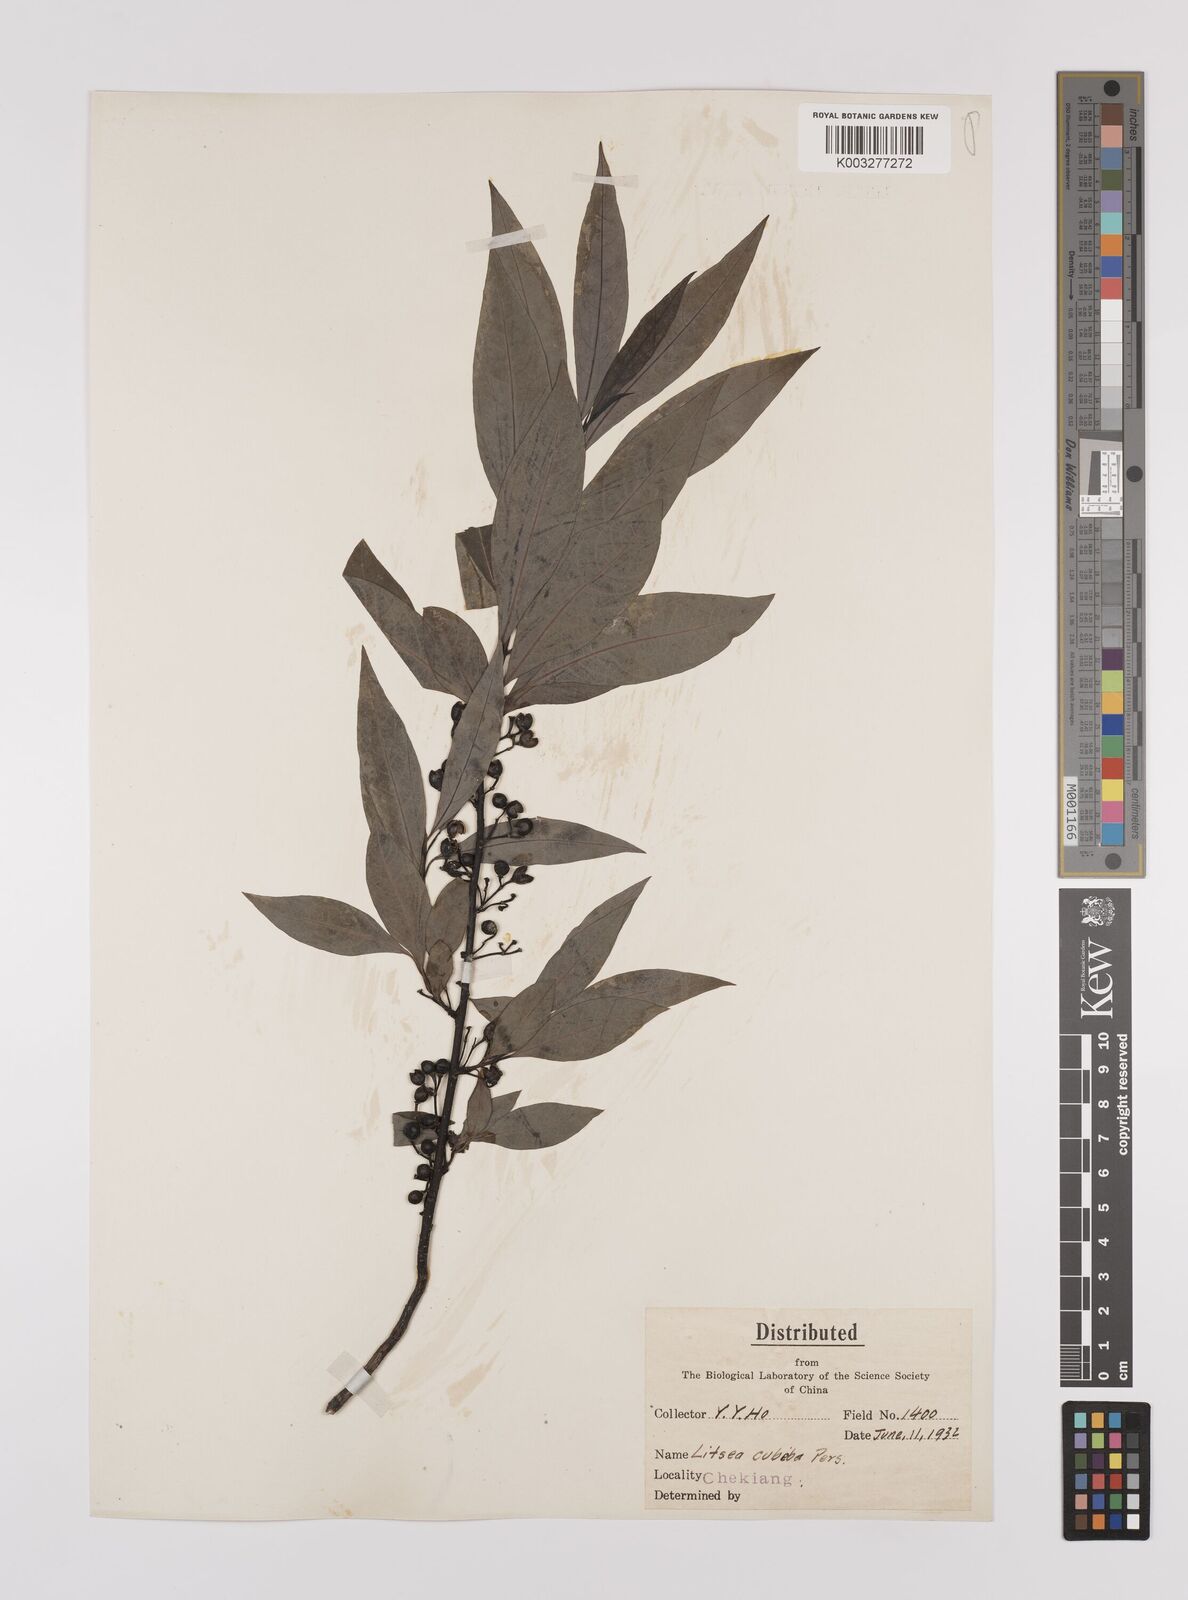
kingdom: Plantae
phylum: Tracheophyta
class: Magnoliopsida
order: Laurales
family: Lauraceae
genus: Litsea
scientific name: Litsea cubeba
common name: Mountain-pepper
